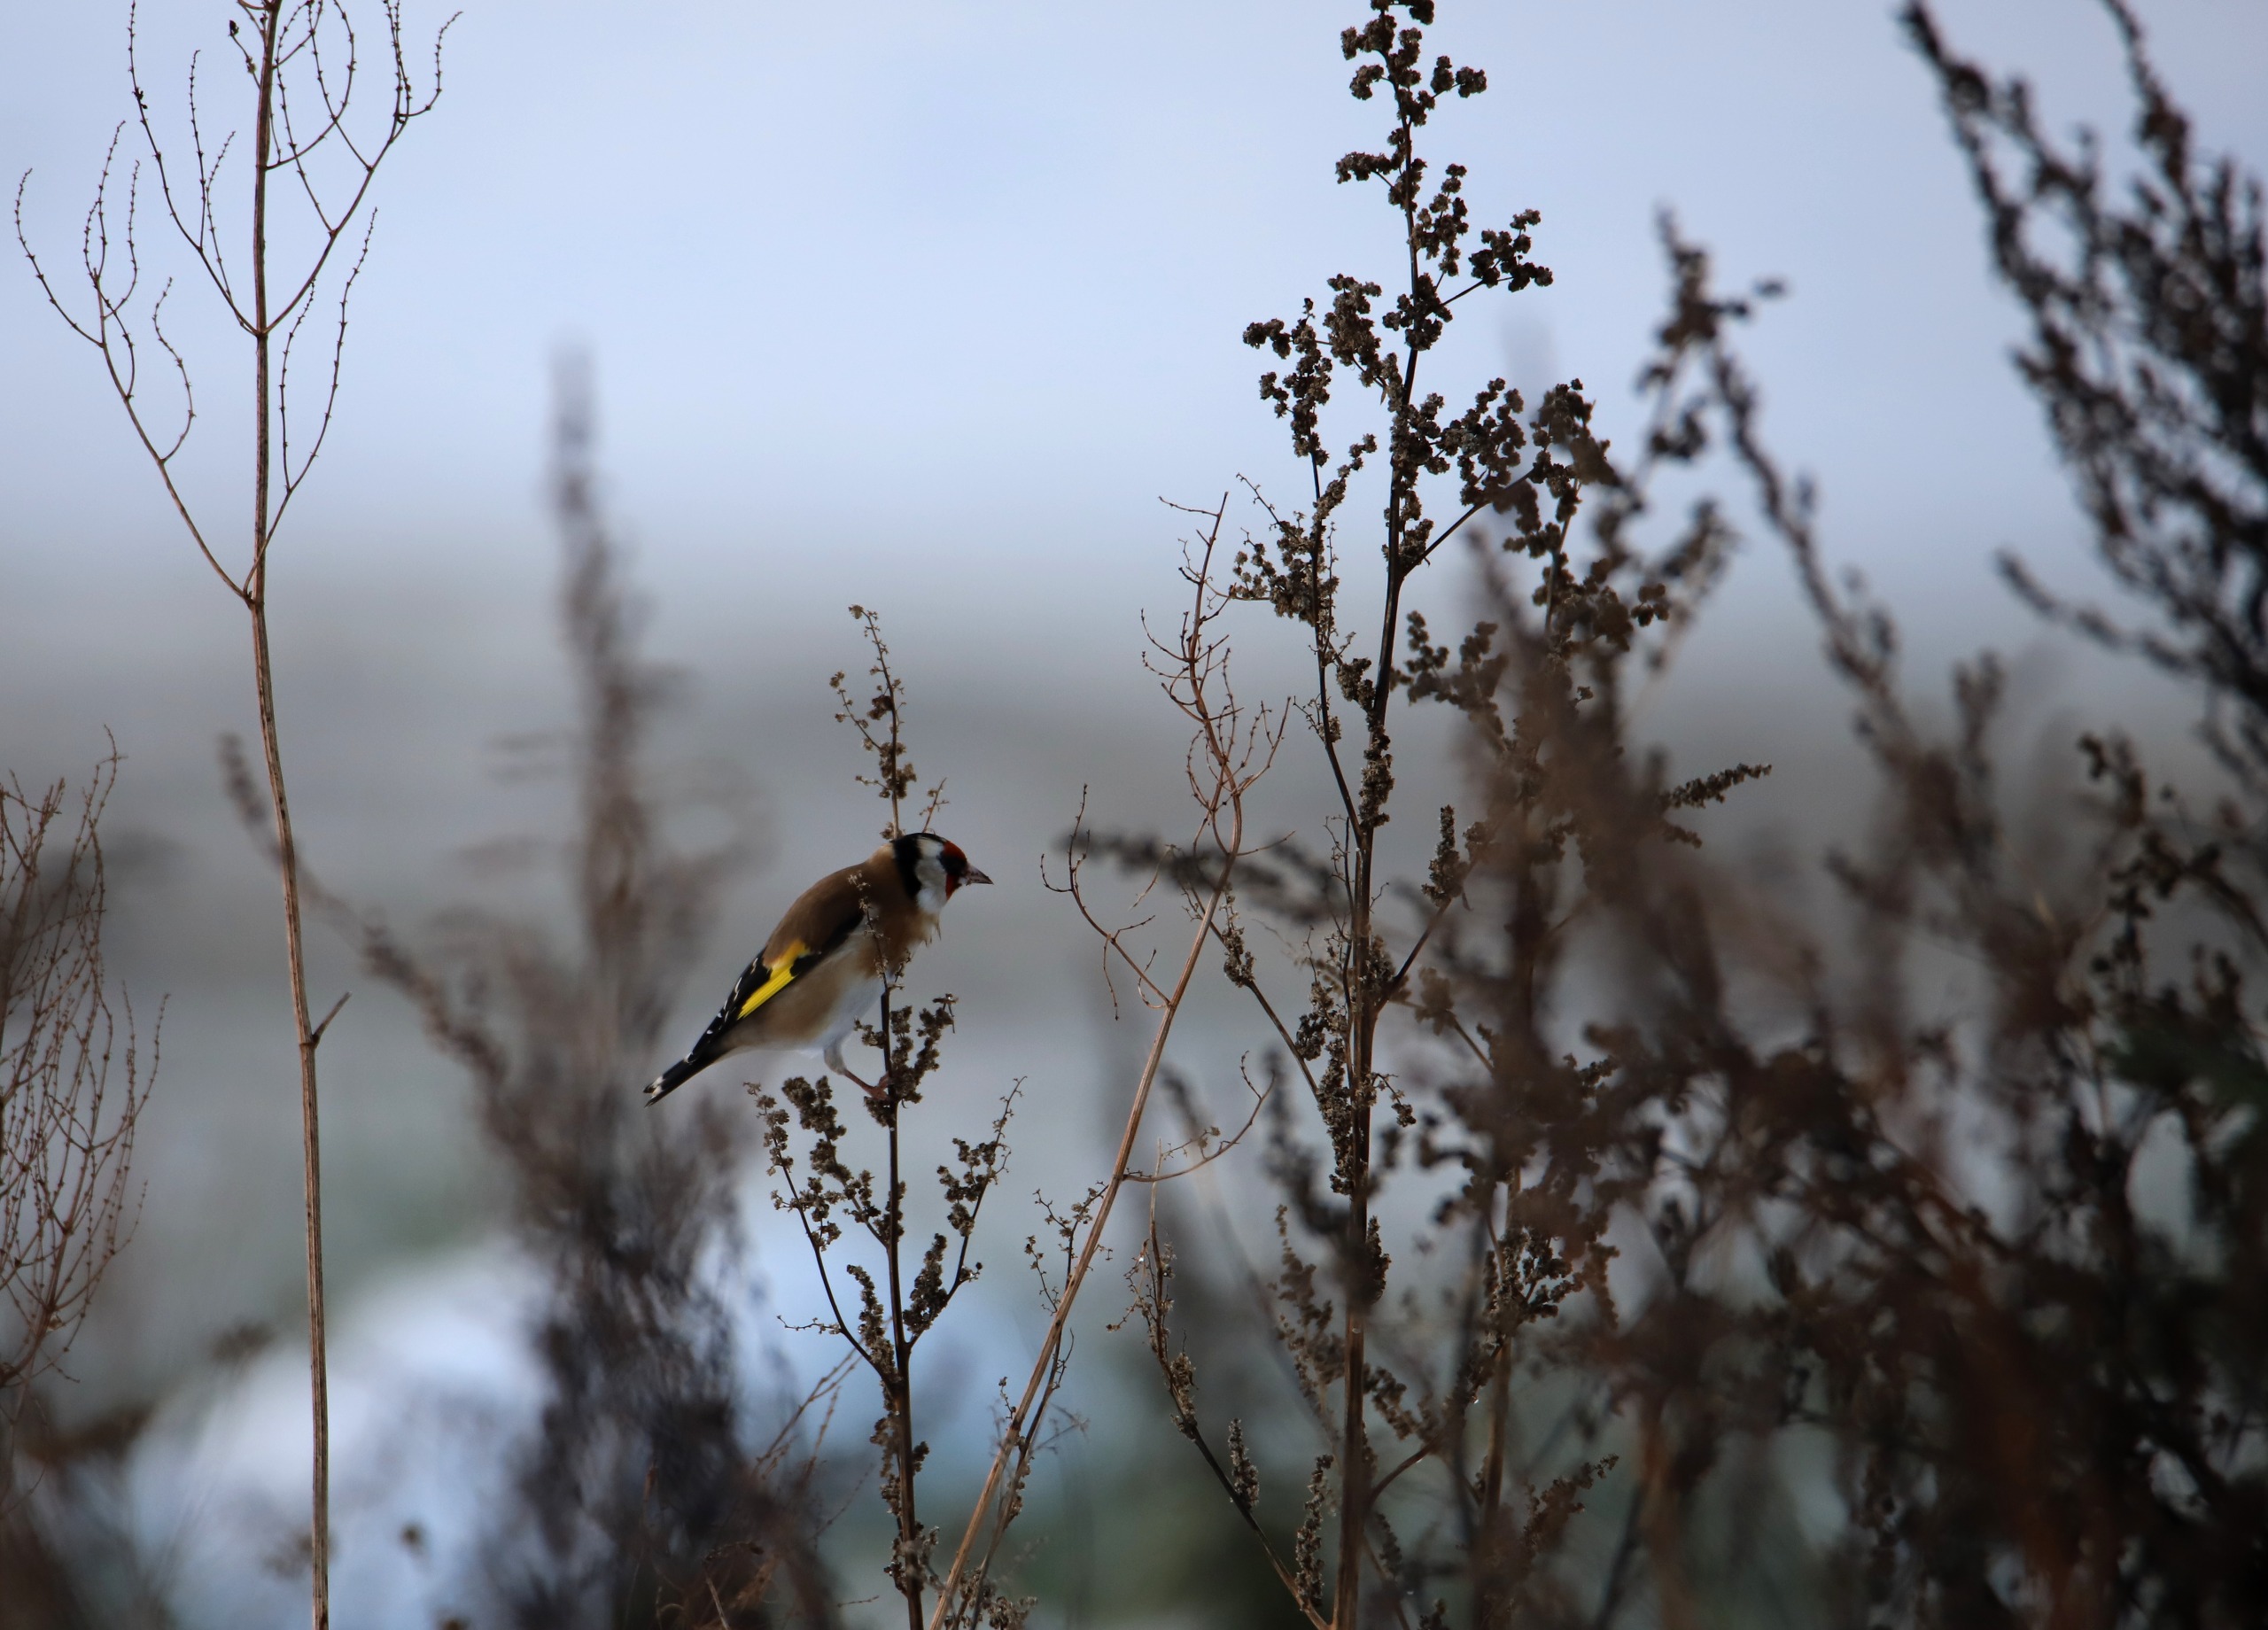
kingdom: Animalia
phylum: Chordata
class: Aves
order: Passeriformes
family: Fringillidae
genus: Carduelis
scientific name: Carduelis carduelis
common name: Stillits
